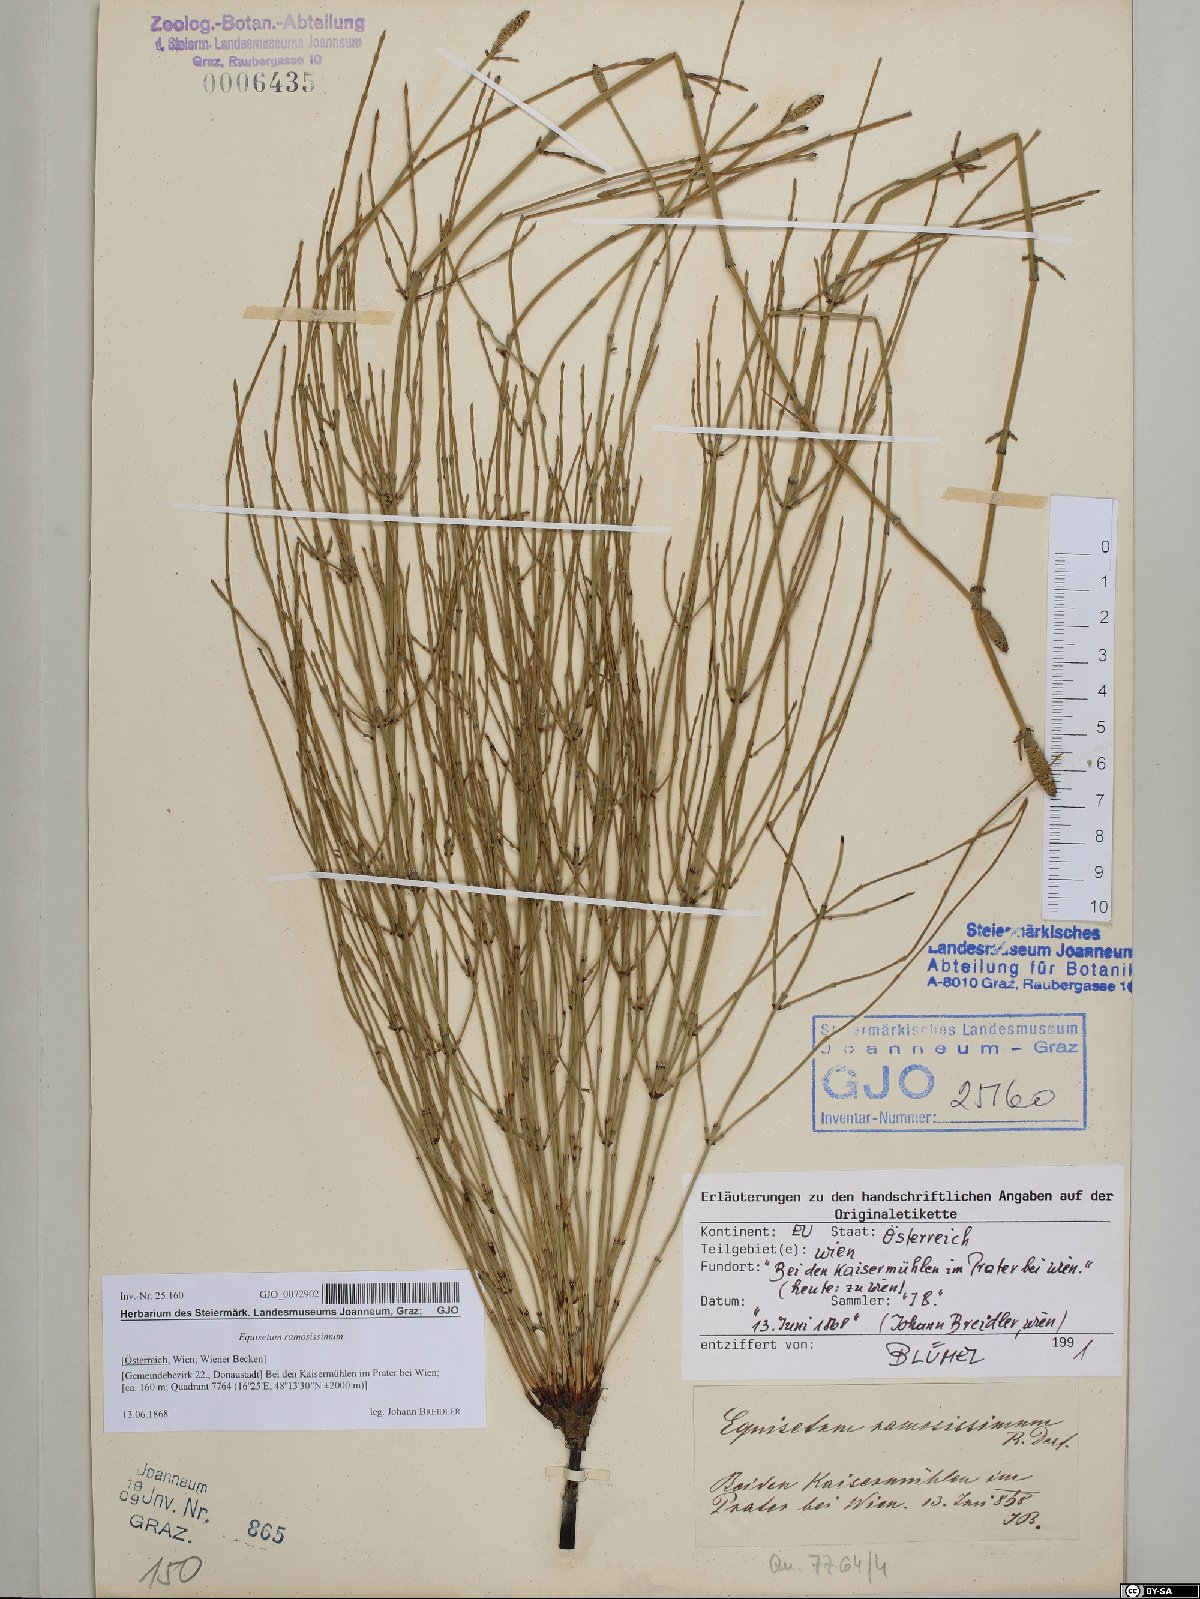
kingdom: Plantae
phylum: Tracheophyta
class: Polypodiopsida
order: Equisetales
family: Equisetaceae
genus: Equisetum
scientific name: Equisetum ramosissimum
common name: Branched horsetail
